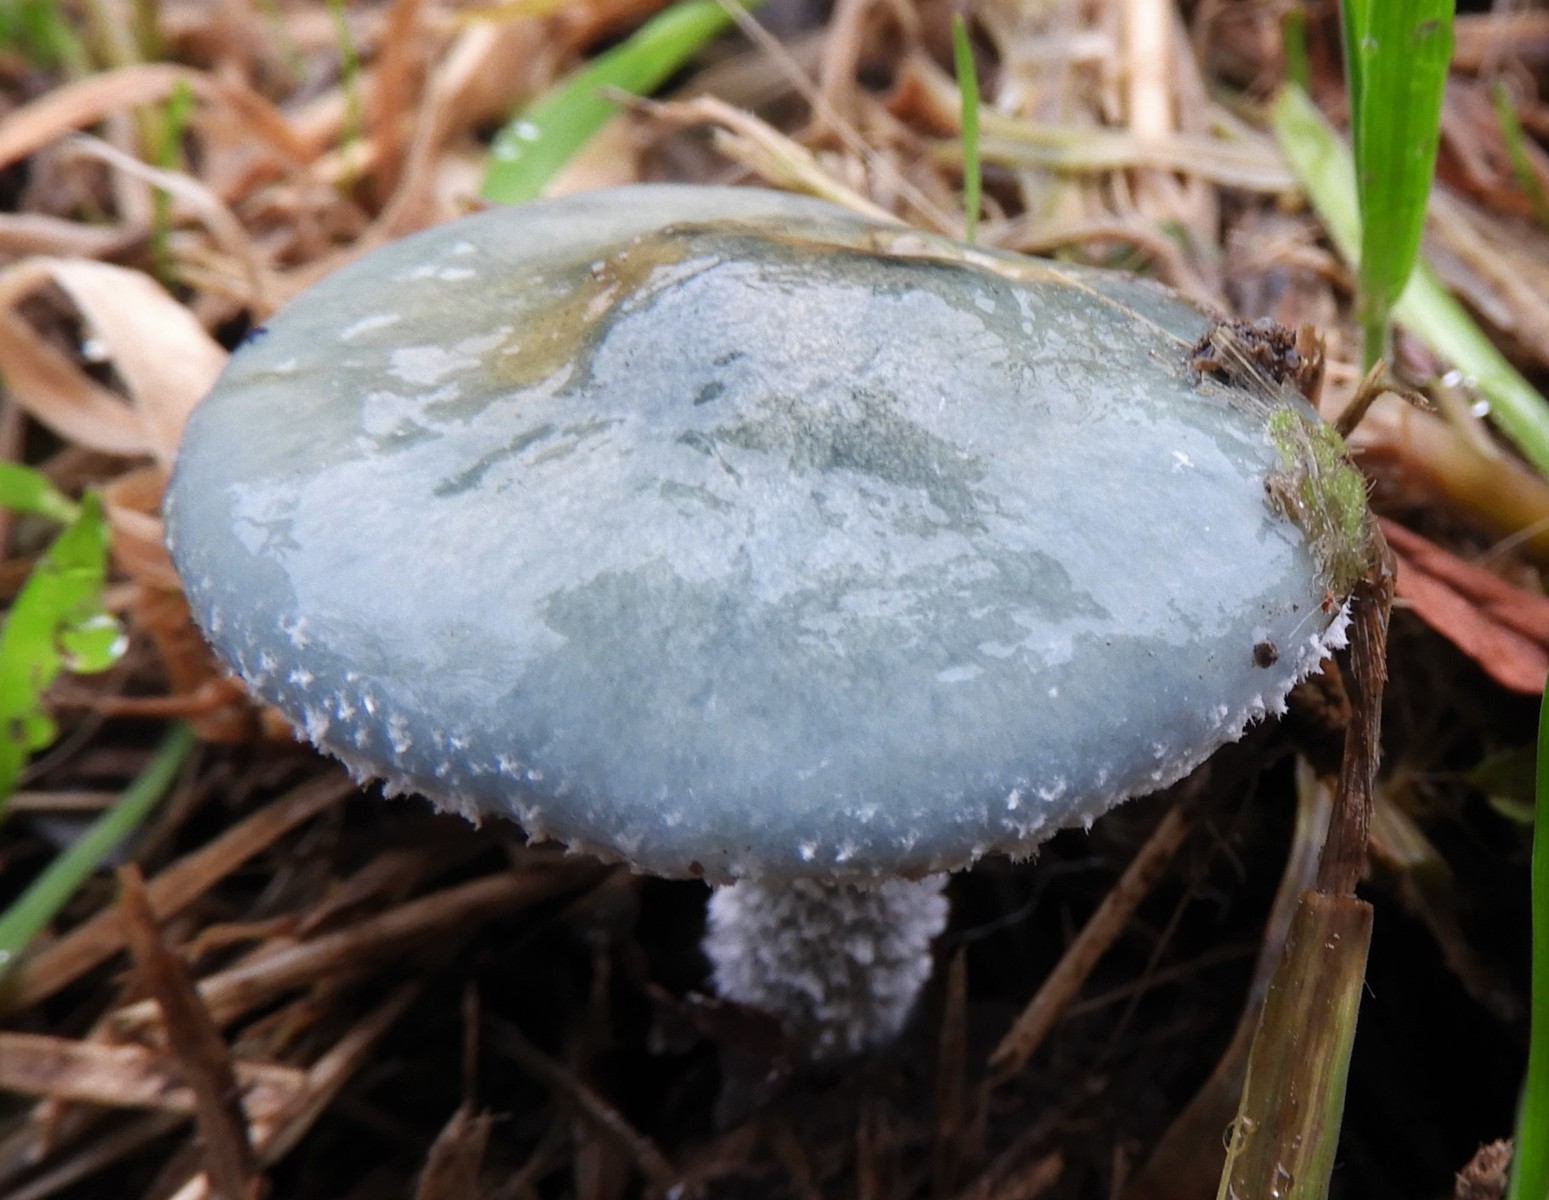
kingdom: Fungi
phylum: Basidiomycota
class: Agaricomycetes
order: Agaricales
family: Strophariaceae
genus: Stropharia
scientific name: Stropharia cyanea
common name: blågrøn bredblad
